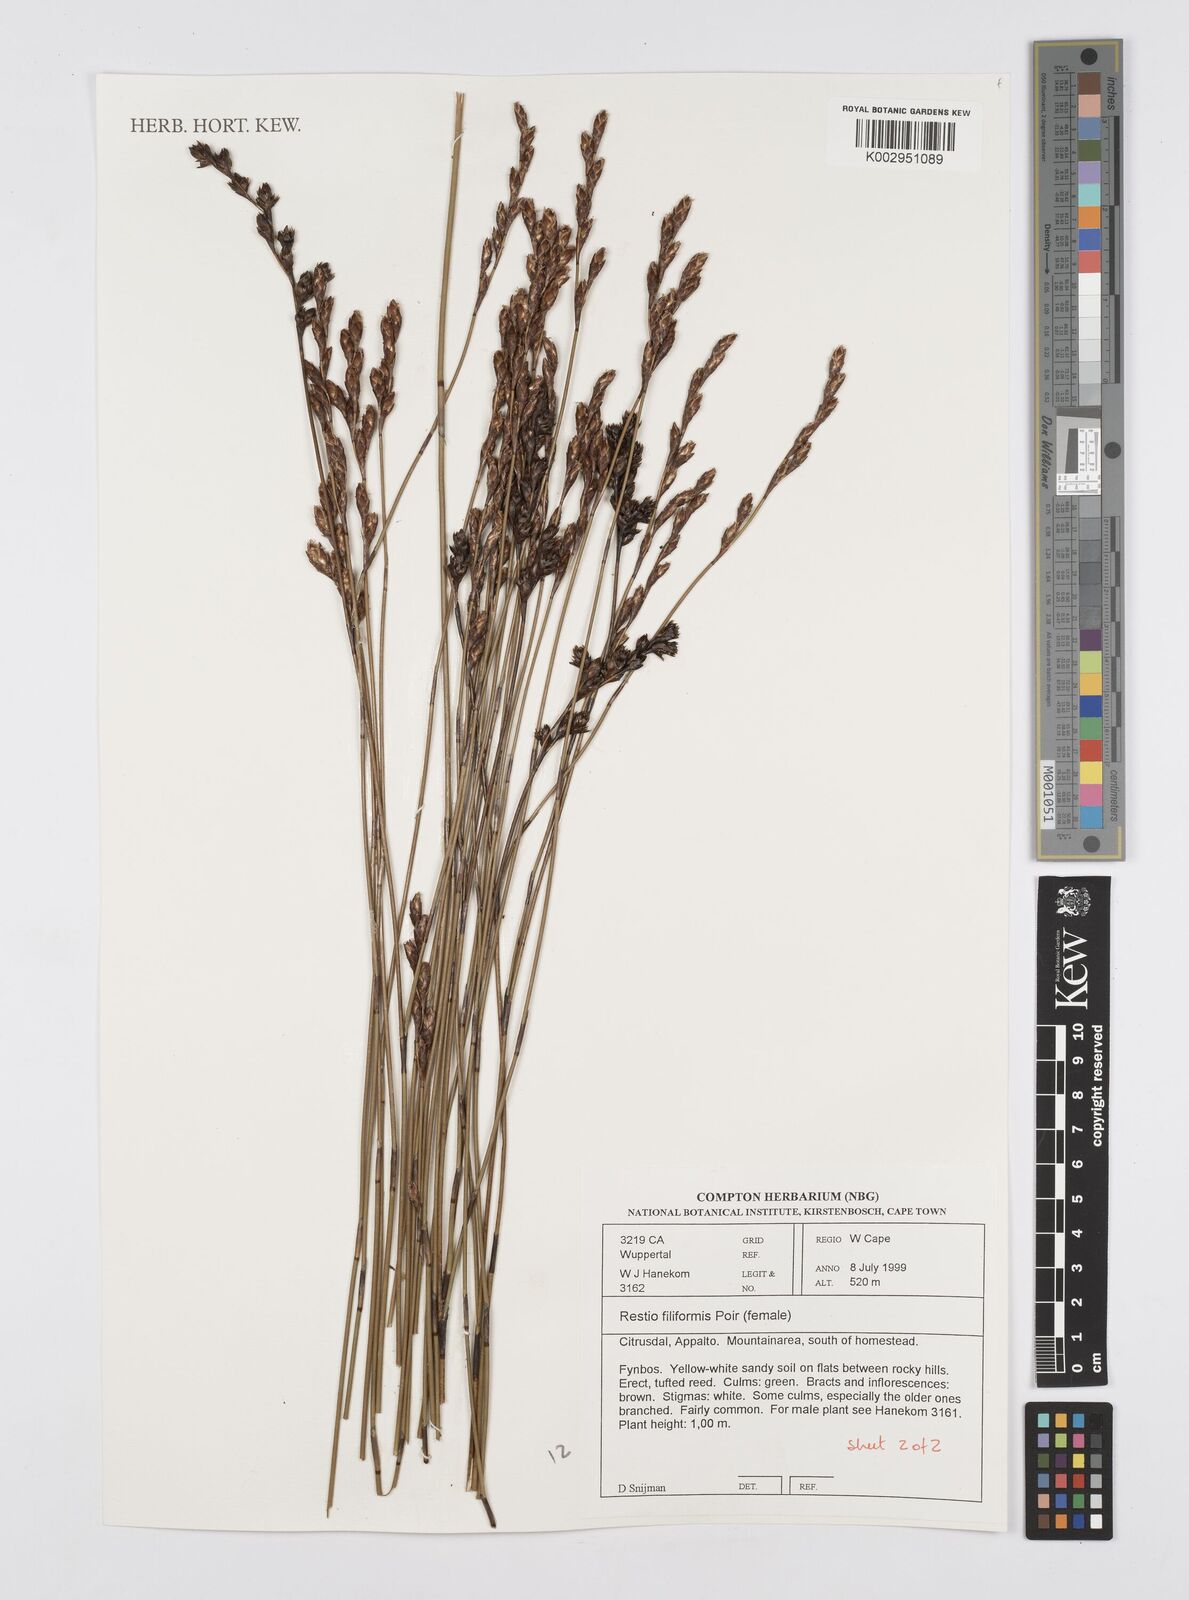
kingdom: Plantae
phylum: Tracheophyta
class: Liliopsida
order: Poales
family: Restionaceae
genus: Restio
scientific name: Restio filiformis
